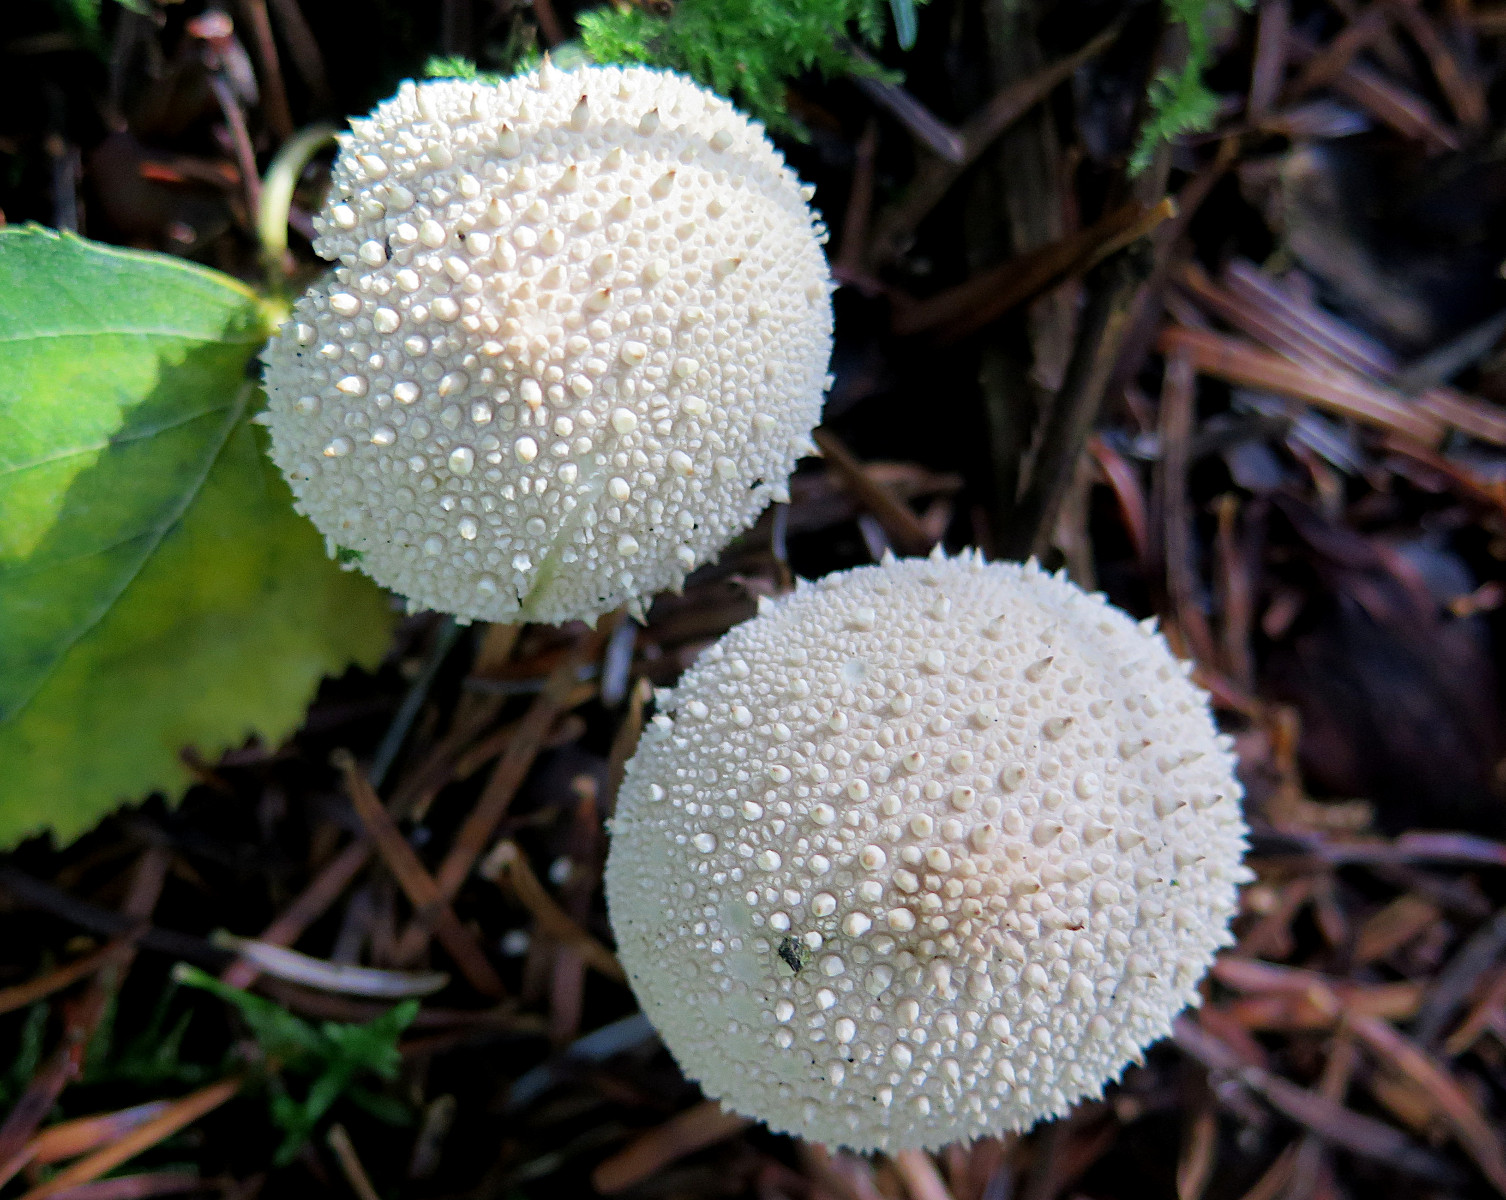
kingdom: Fungi
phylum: Basidiomycota
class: Agaricomycetes
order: Agaricales
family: Lycoperdaceae
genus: Lycoperdon
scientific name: Lycoperdon perlatum
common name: krystal-støvbold
